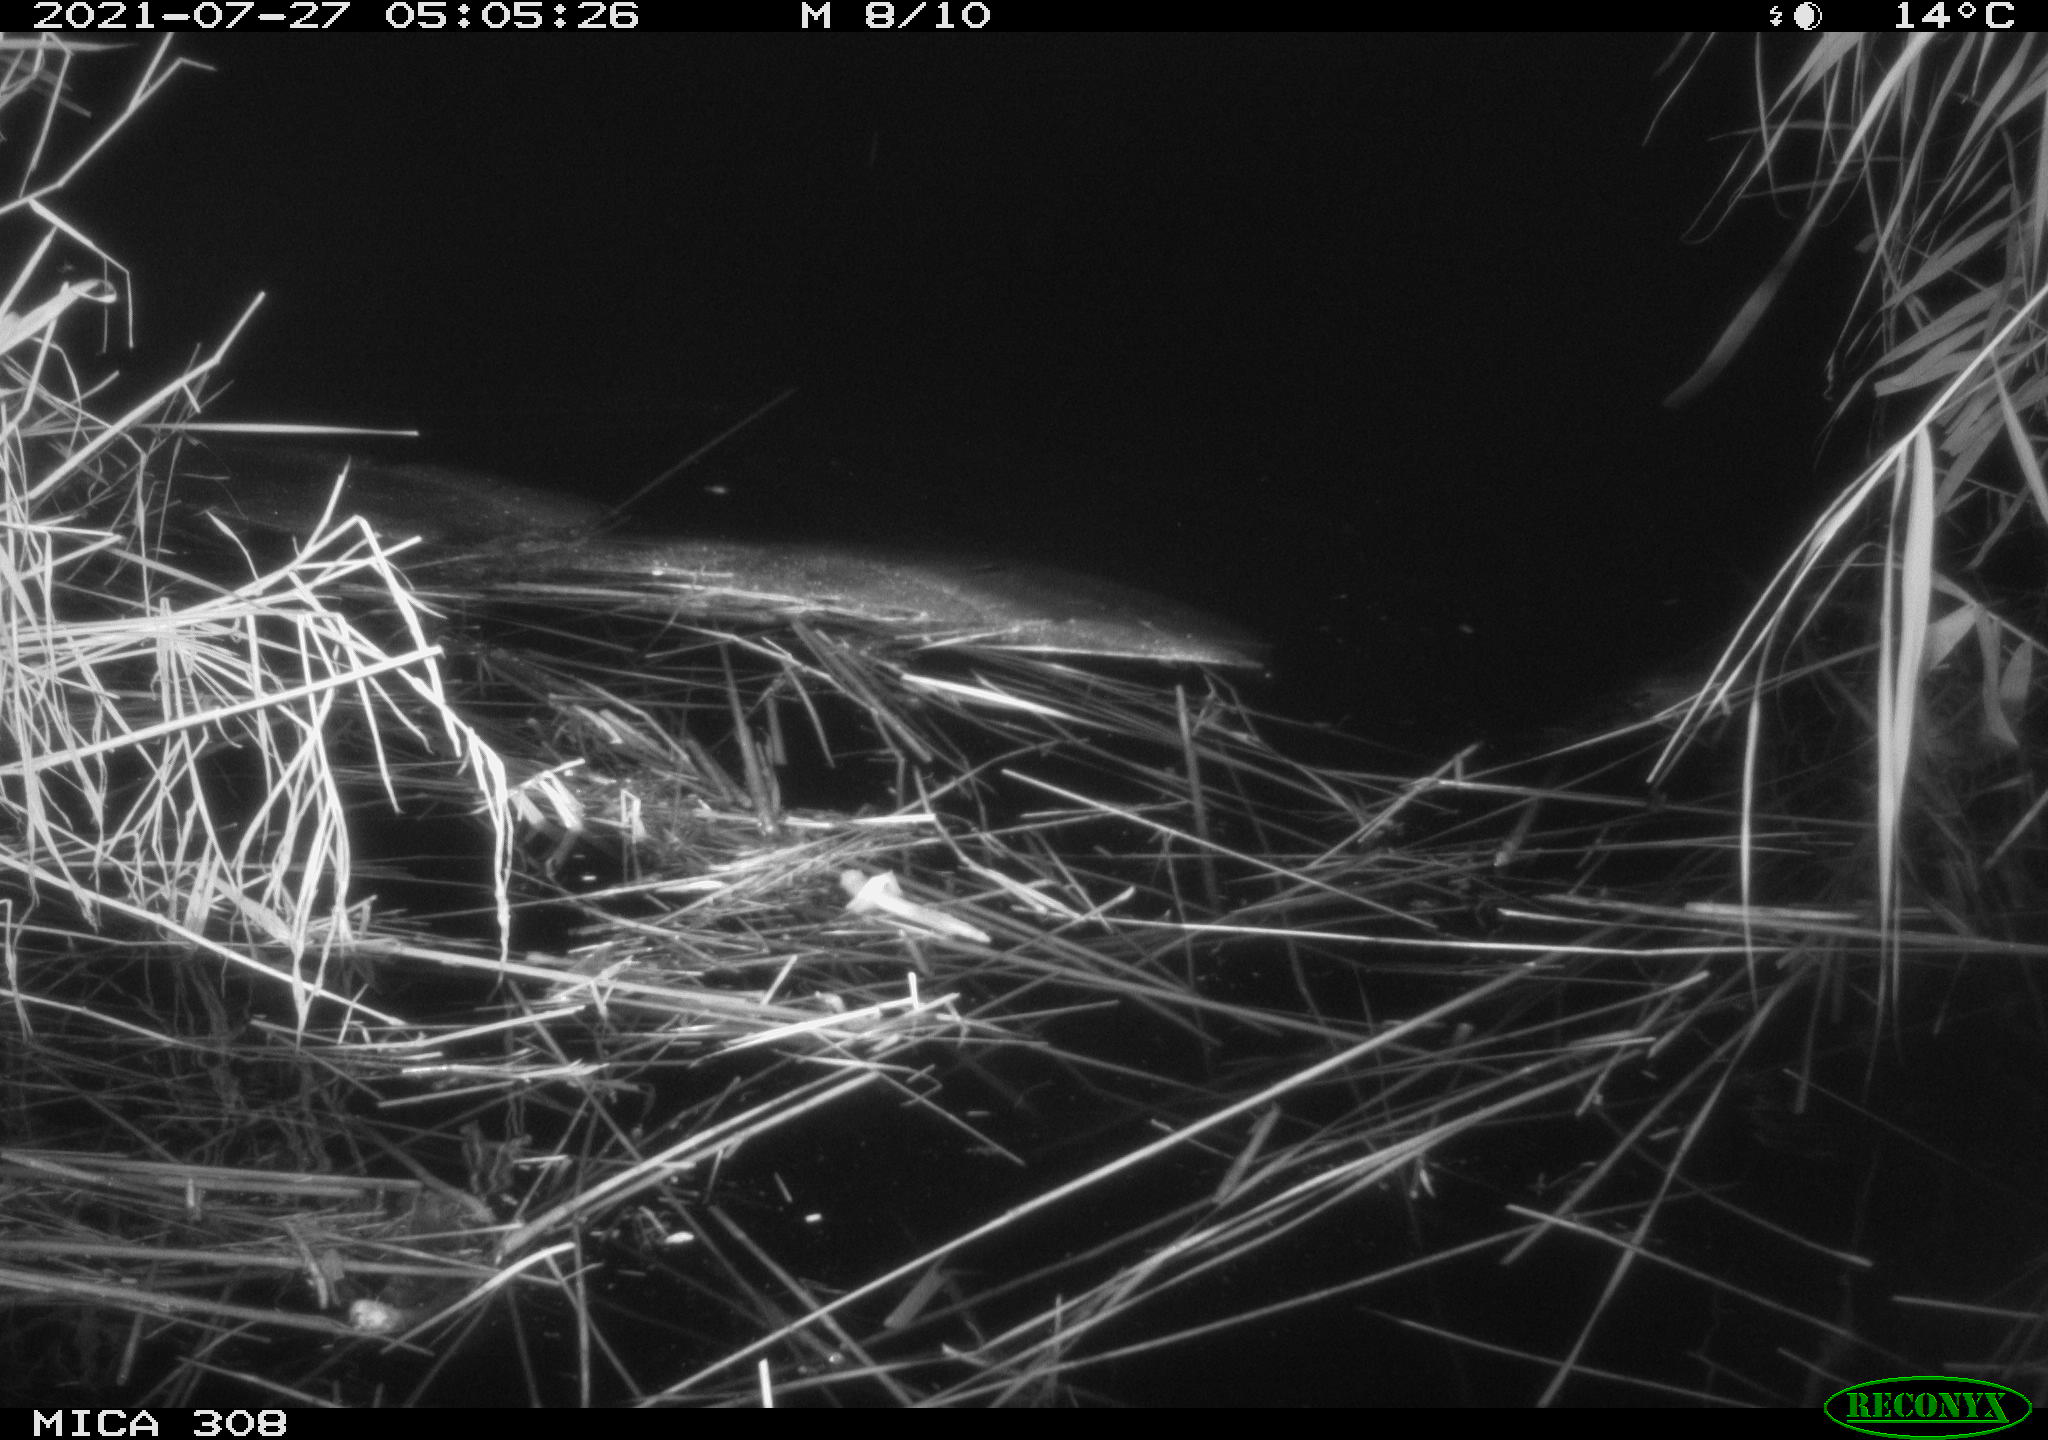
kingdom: Animalia
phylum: Chordata
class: Aves
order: Anseriformes
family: Anatidae
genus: Anas
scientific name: Anas platyrhynchos
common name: Mallard
